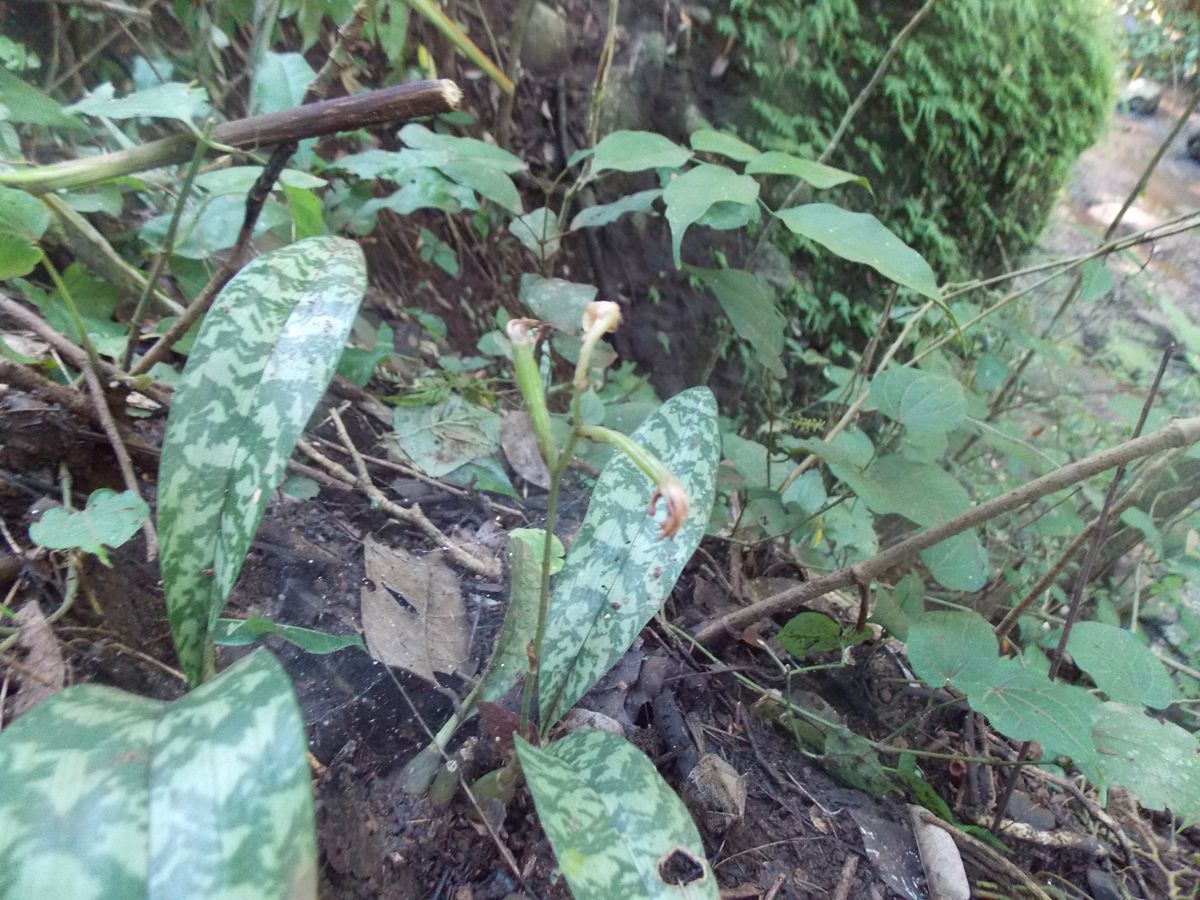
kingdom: Plantae
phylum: Tracheophyta
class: Liliopsida
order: Asparagales
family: Orchidaceae
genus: Eulophia
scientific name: Eulophia maculata
